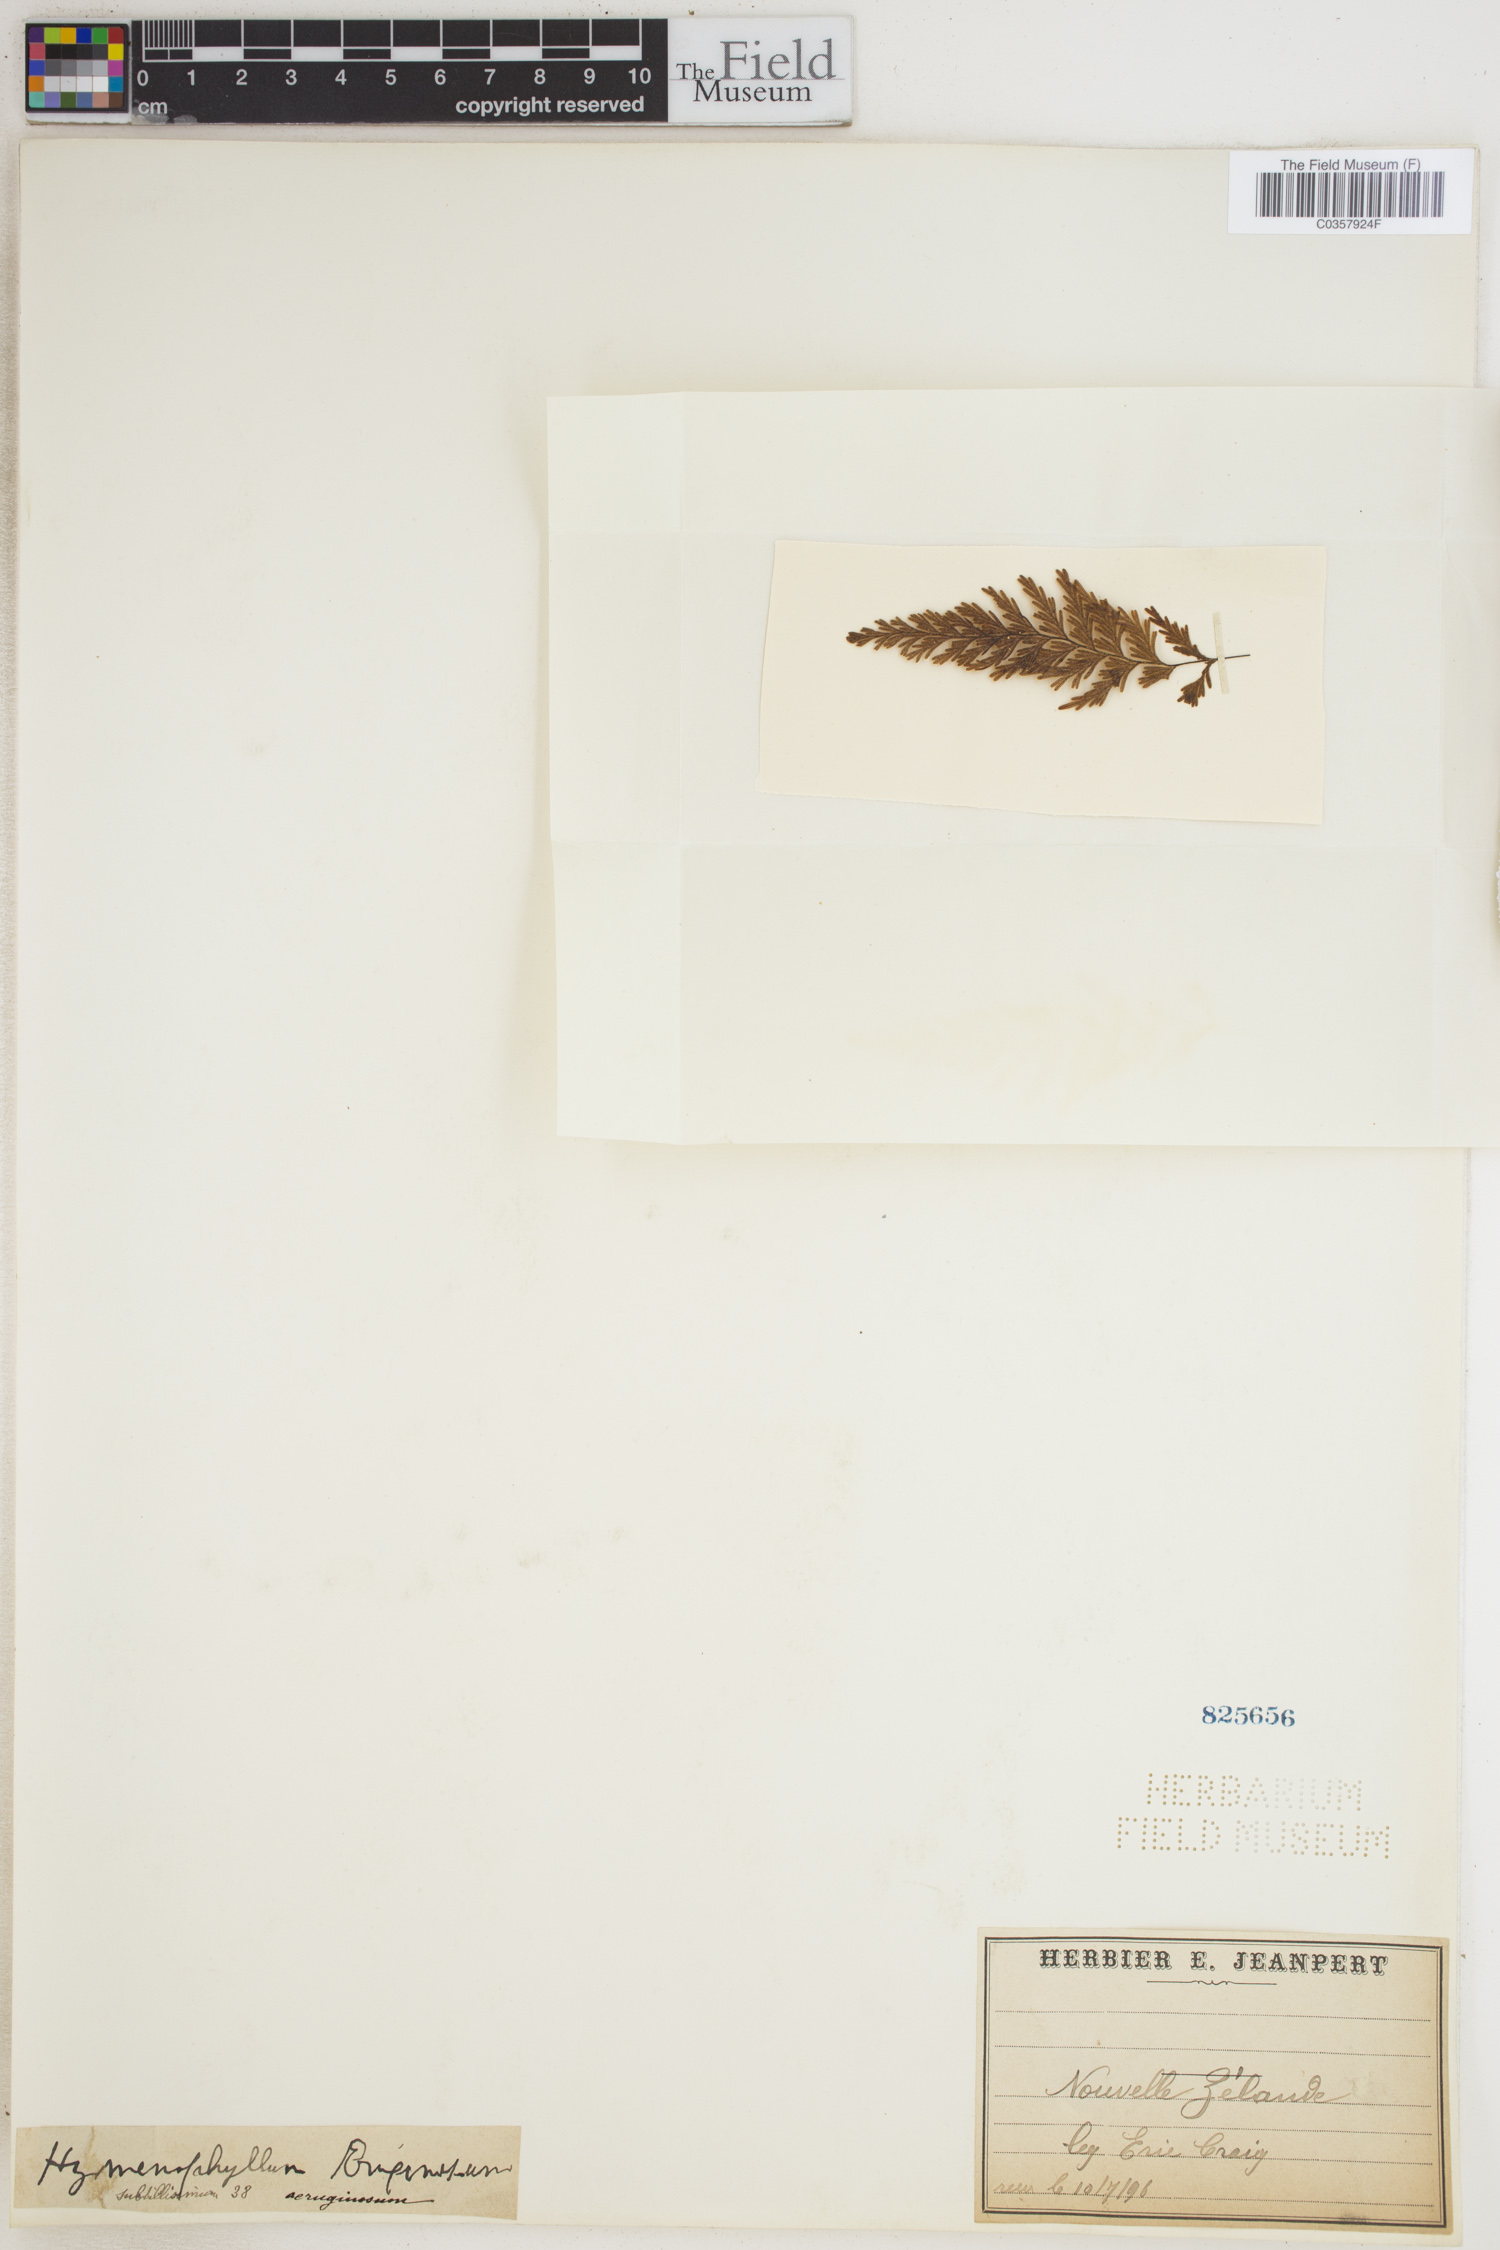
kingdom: Plantae
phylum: Tracheophyta
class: Polypodiopsida
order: Hymenophyllales
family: Hymenophyllaceae
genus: Hymenophyllum
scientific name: Hymenophyllum aeruginosum
